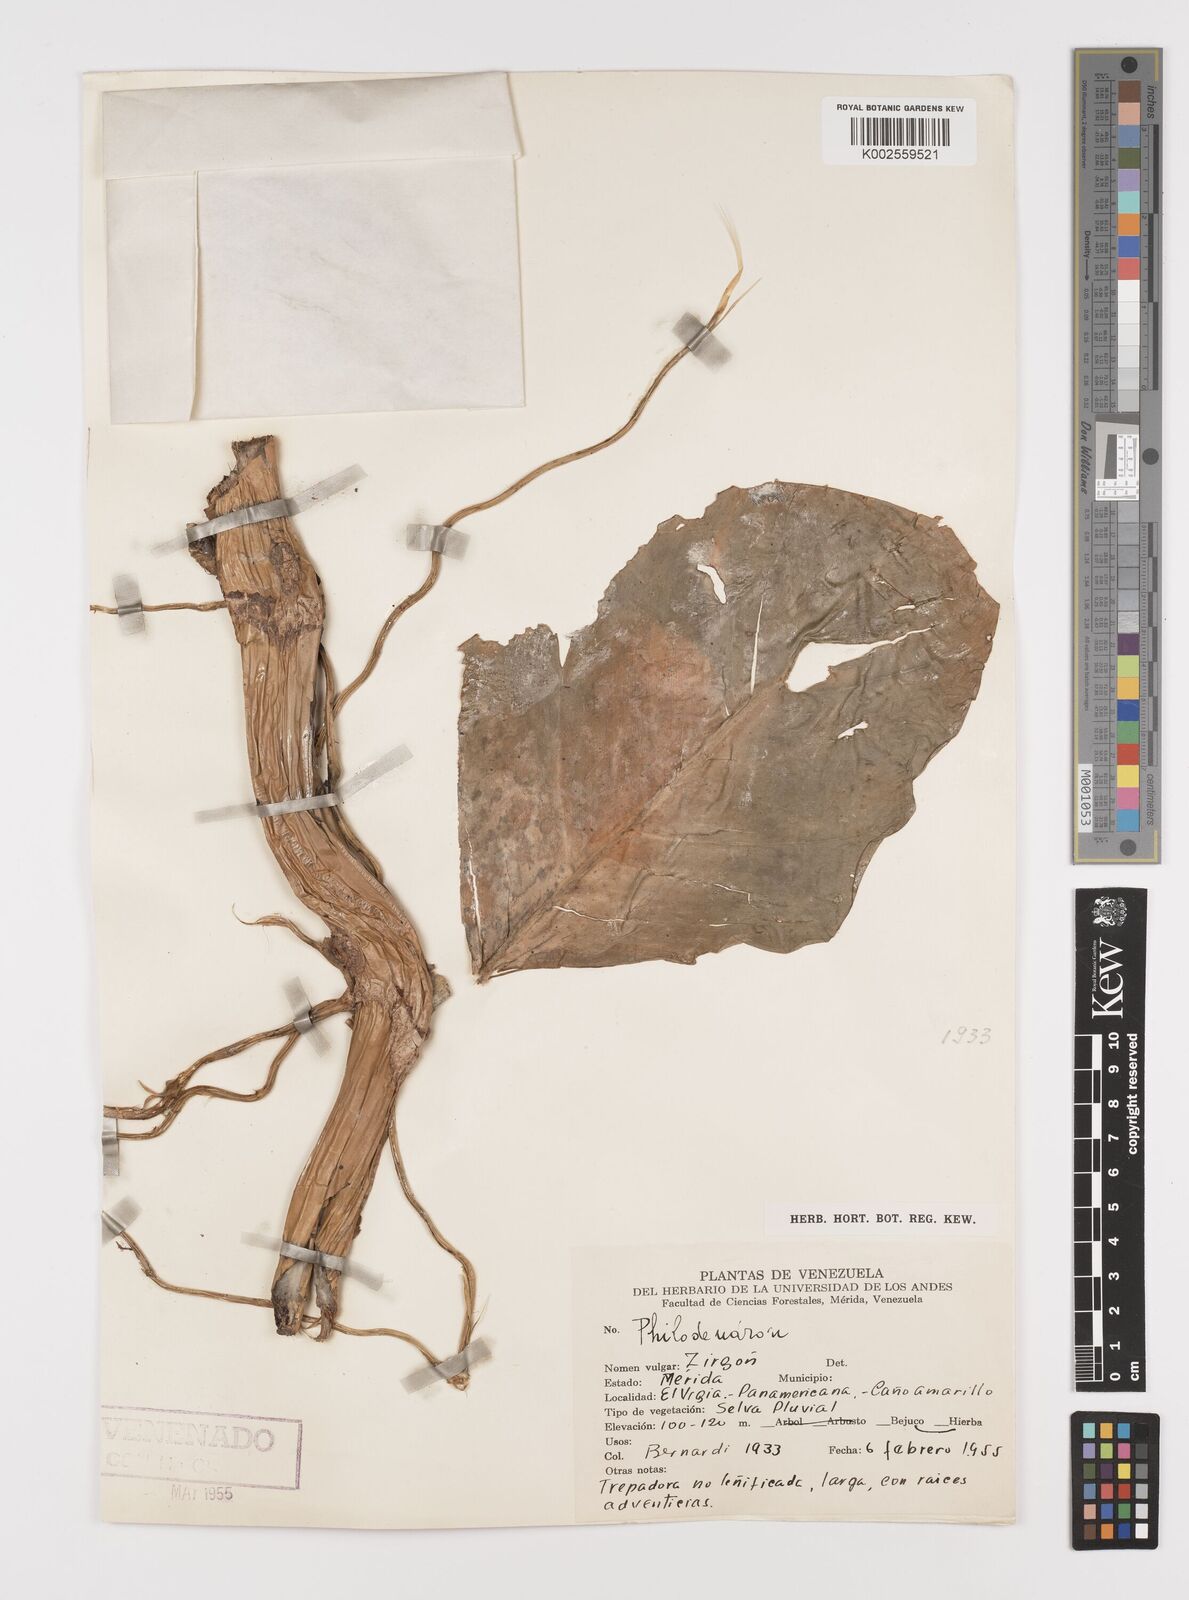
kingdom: Plantae
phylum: Tracheophyta
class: Liliopsida
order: Alismatales
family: Araceae
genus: Philodendron
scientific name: Philodendron
